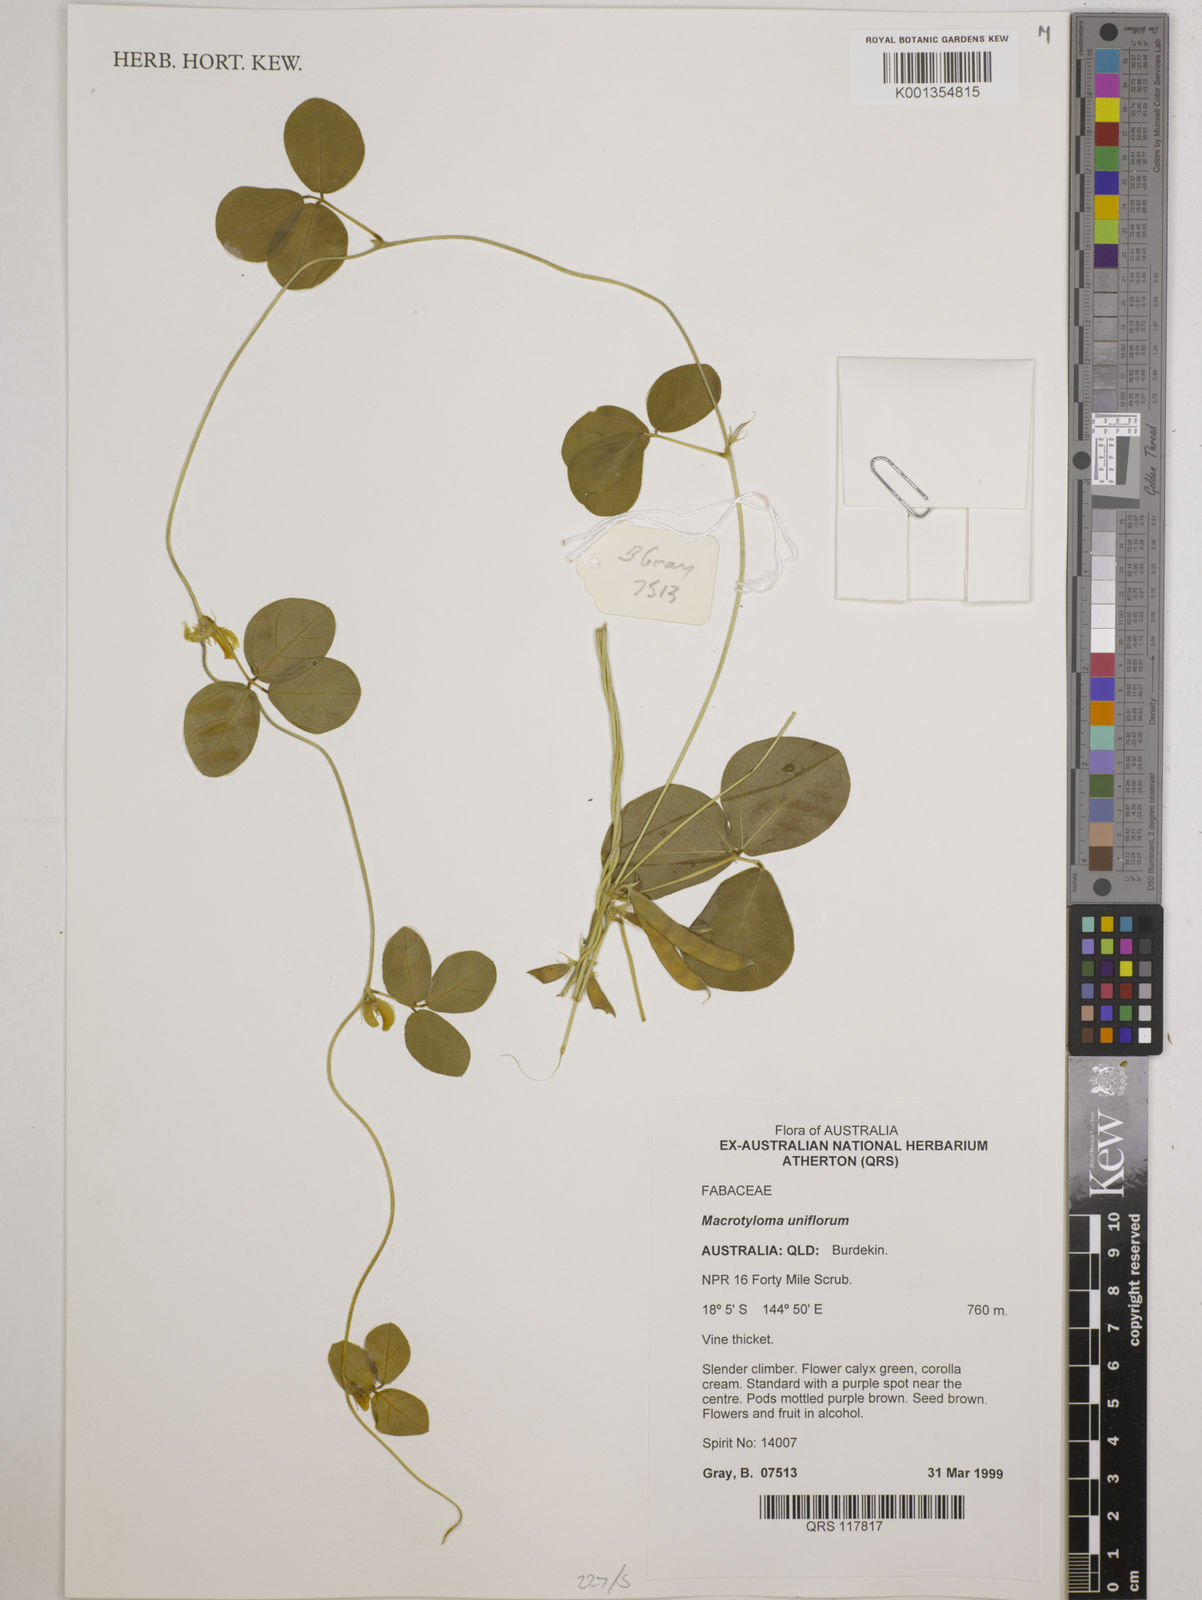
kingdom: Plantae
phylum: Tracheophyta
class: Magnoliopsida
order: Fabales
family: Fabaceae
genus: Macrotyloma
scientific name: Macrotyloma uniflorum
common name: Horse gram
